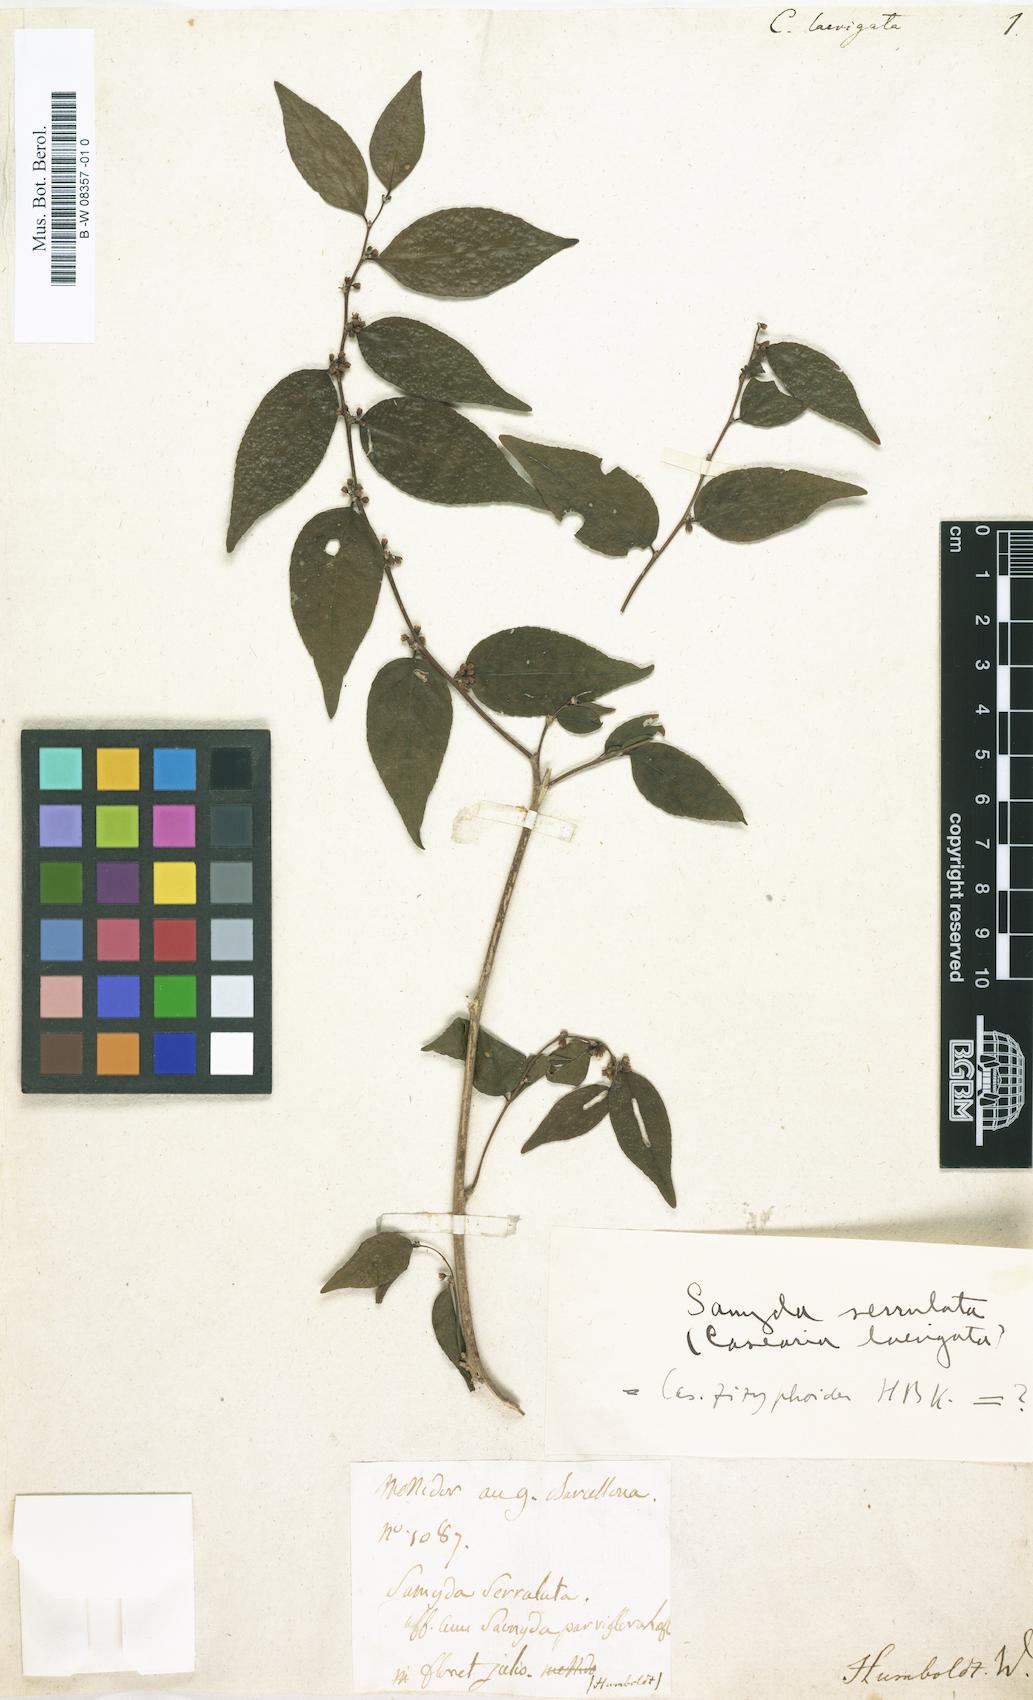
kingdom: Plantae
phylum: Tracheophyta
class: Magnoliopsida
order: Malpighiales
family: Salicaceae
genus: Casearia
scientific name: Casearia
